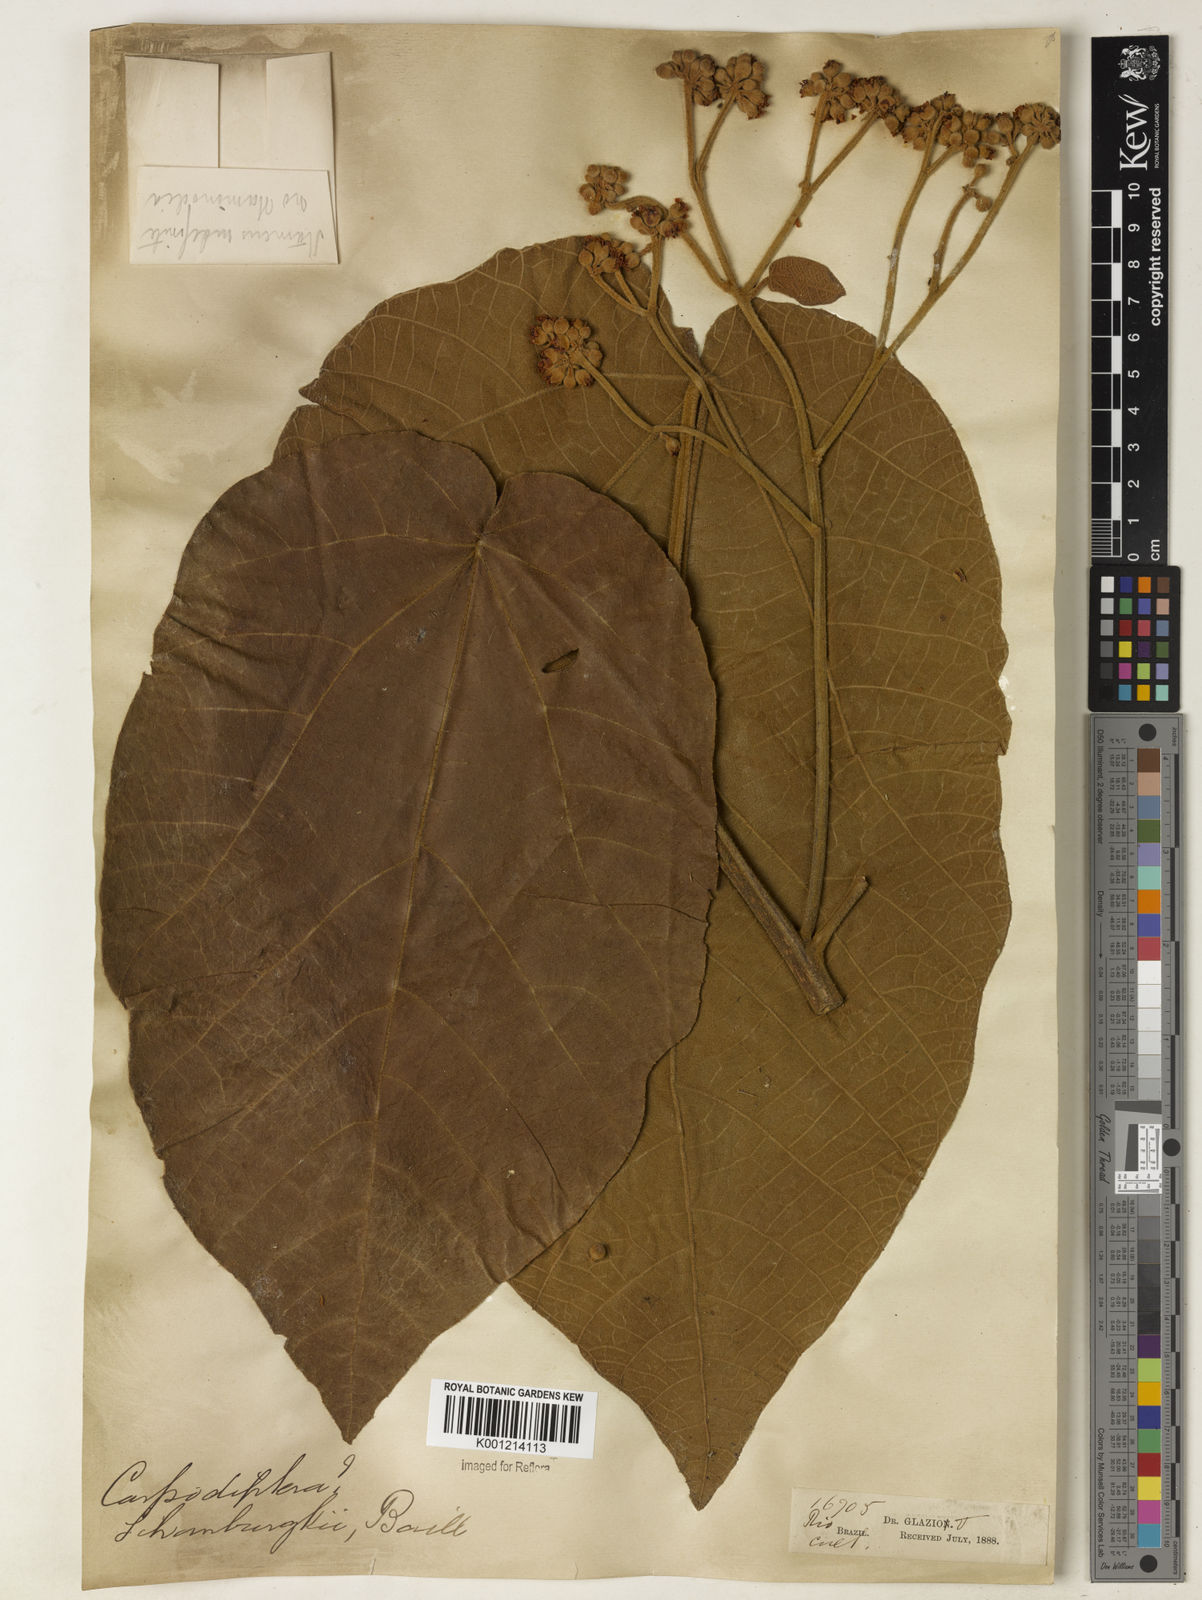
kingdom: Plantae
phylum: Tracheophyta
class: Magnoliopsida
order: Malvales
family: Malvaceae
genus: Christiana
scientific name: Christiana africana
